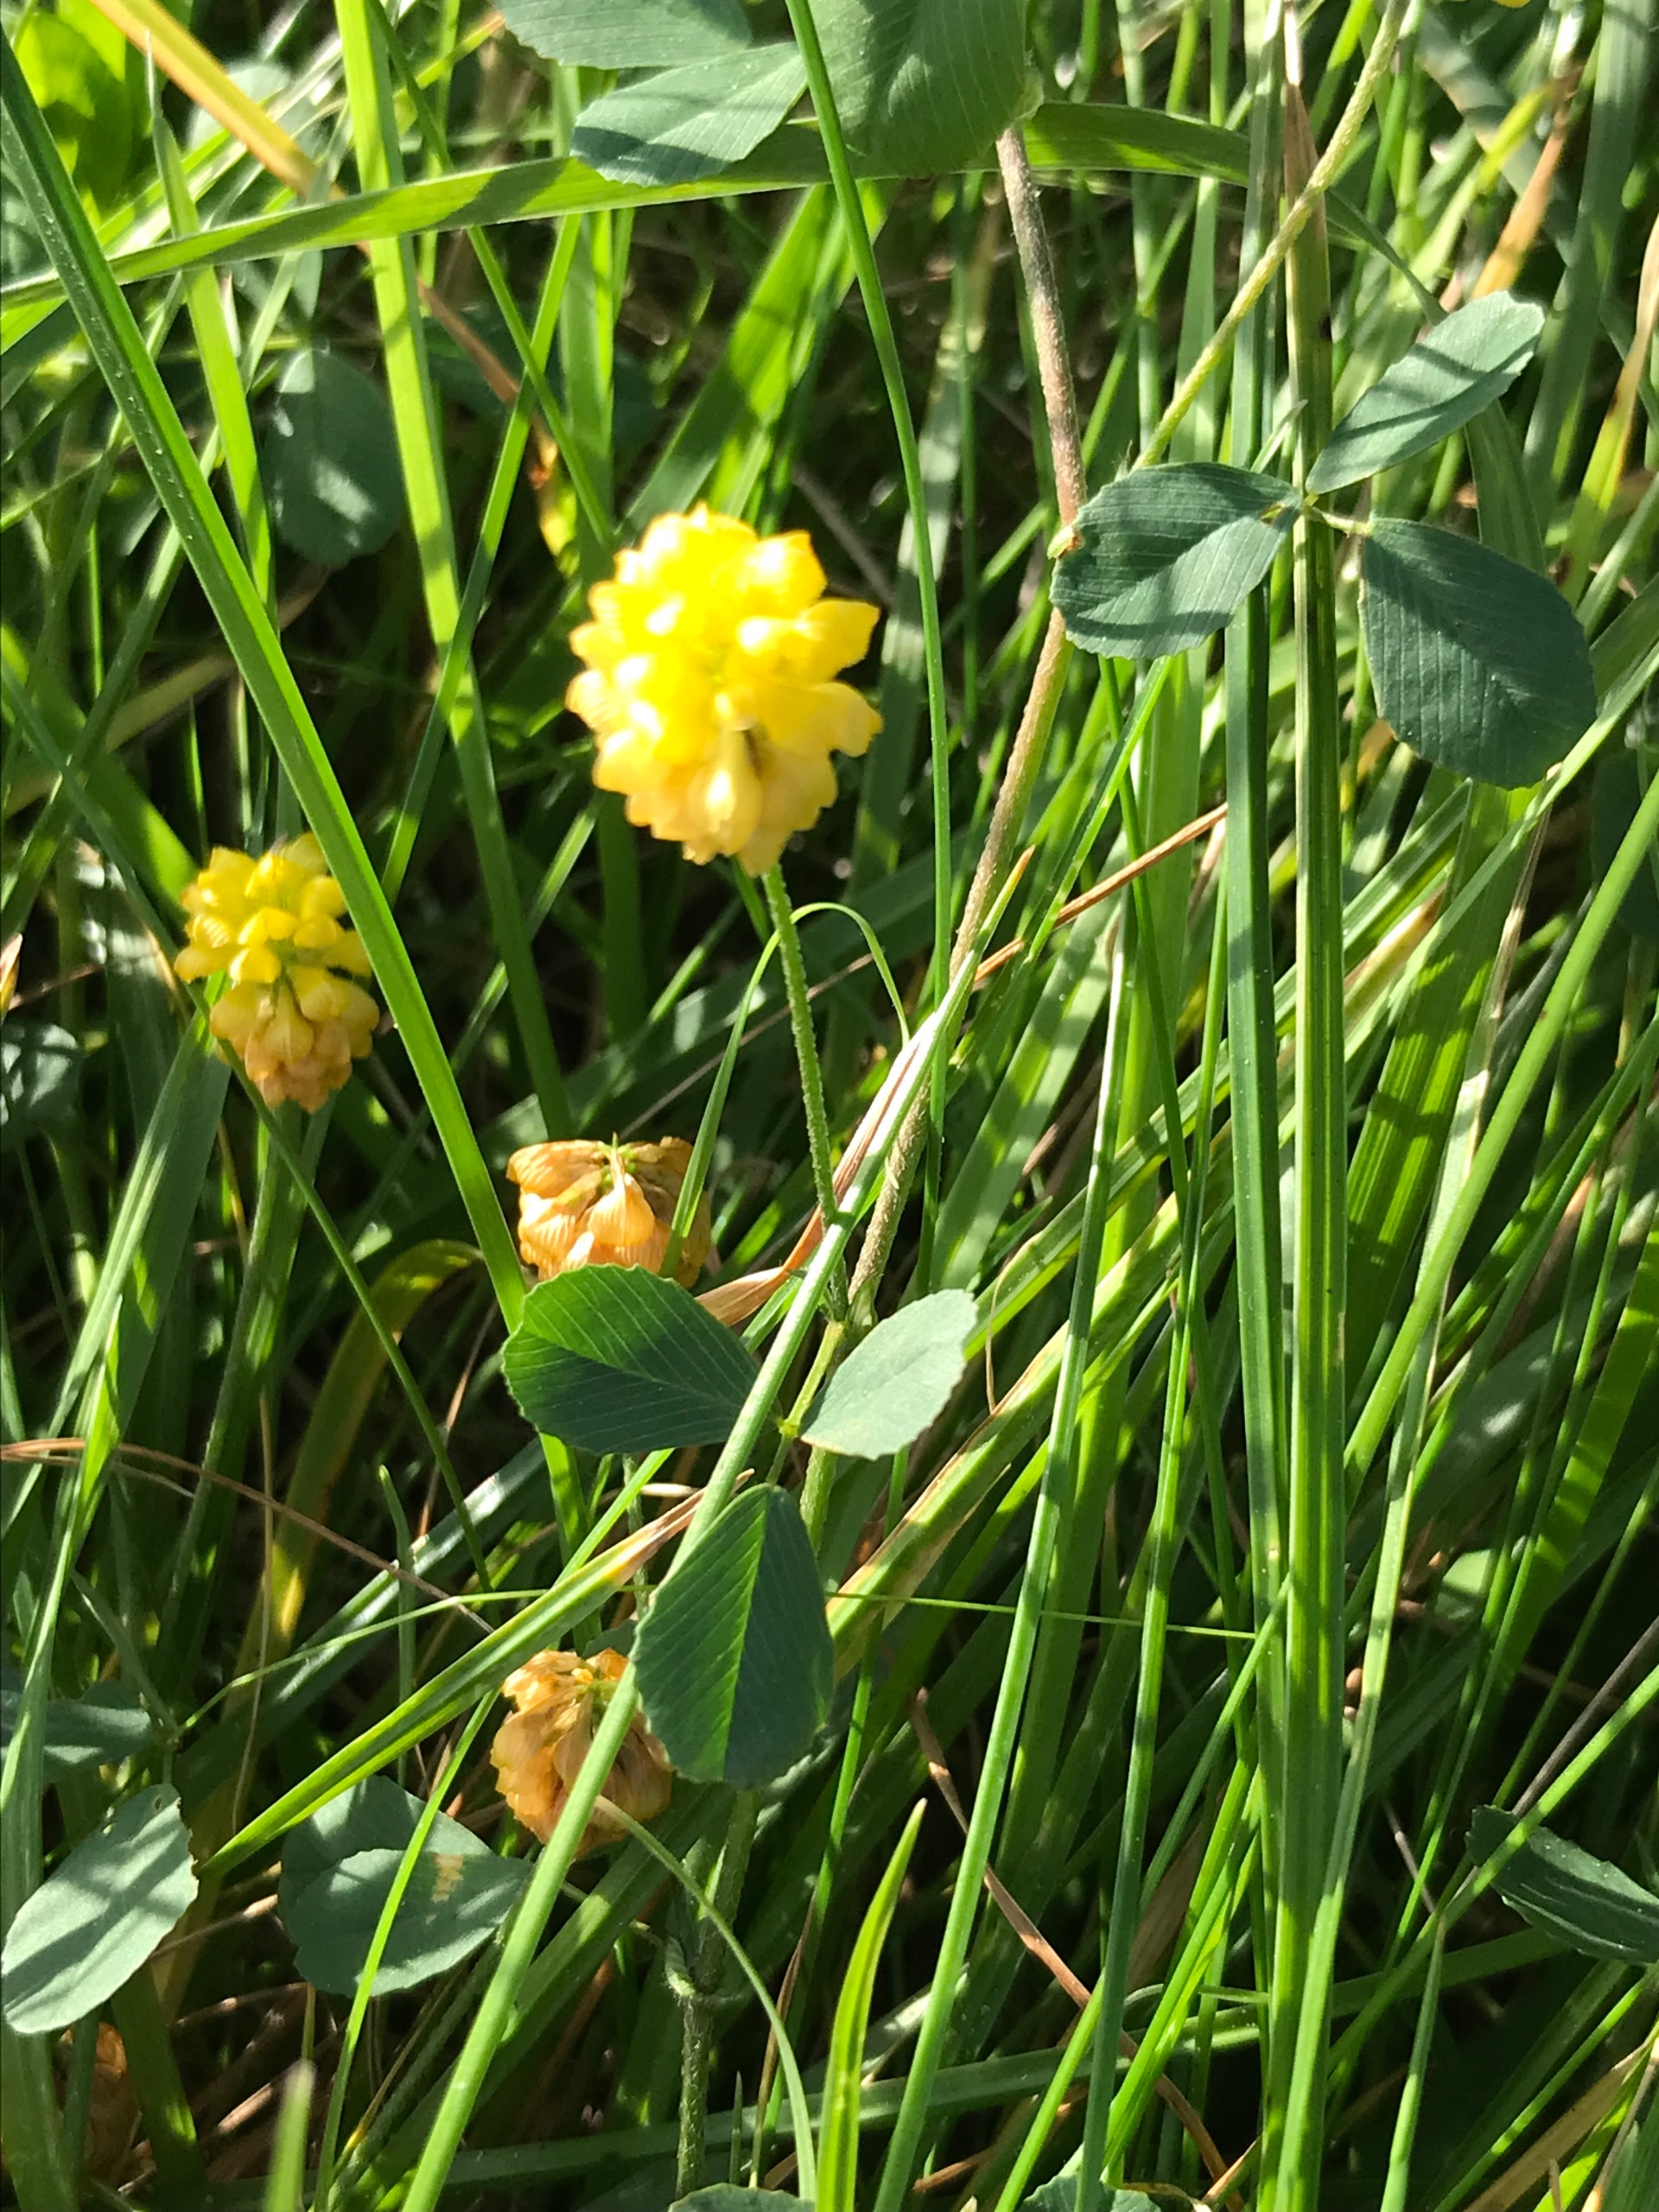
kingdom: Plantae
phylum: Tracheophyta
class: Magnoliopsida
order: Fabales
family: Fabaceae
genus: Trifolium
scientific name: Trifolium campestre
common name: Gul kløver
